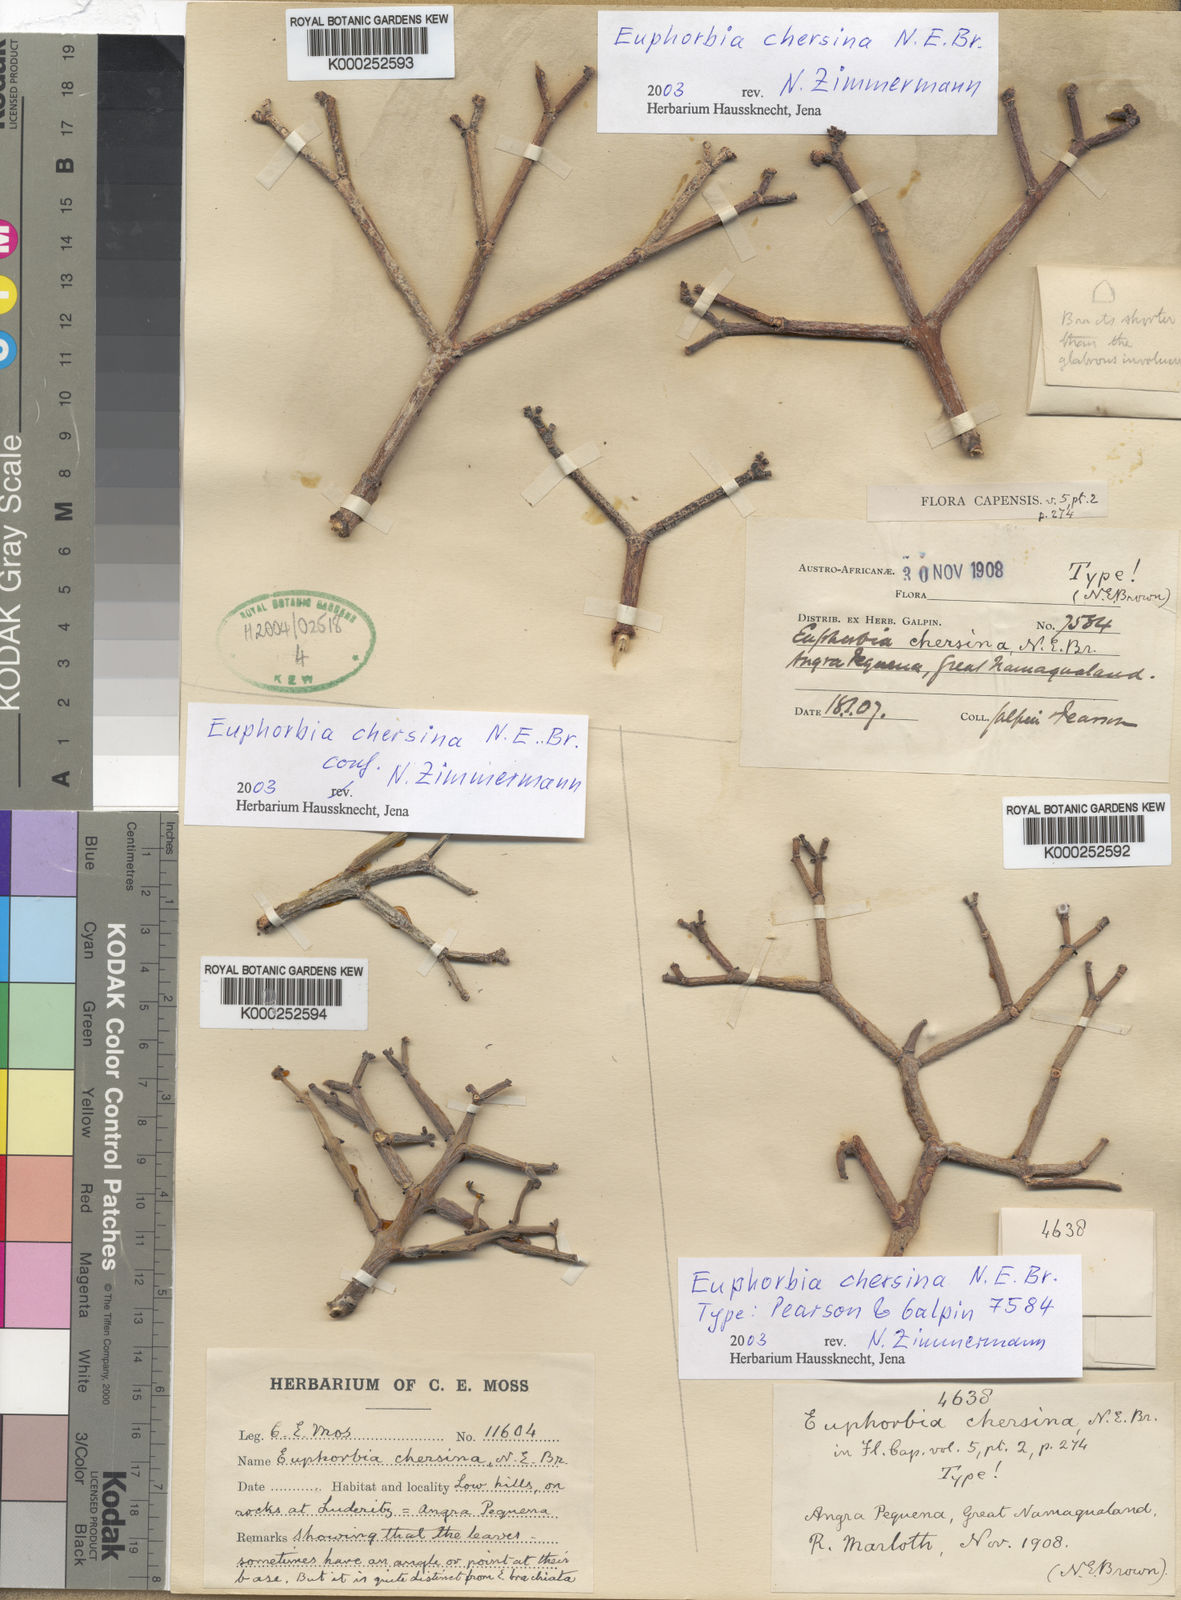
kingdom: Plantae
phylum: Tracheophyta
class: Magnoliopsida
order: Malpighiales
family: Euphorbiaceae
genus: Euphorbia
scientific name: Euphorbia rhombifolia
